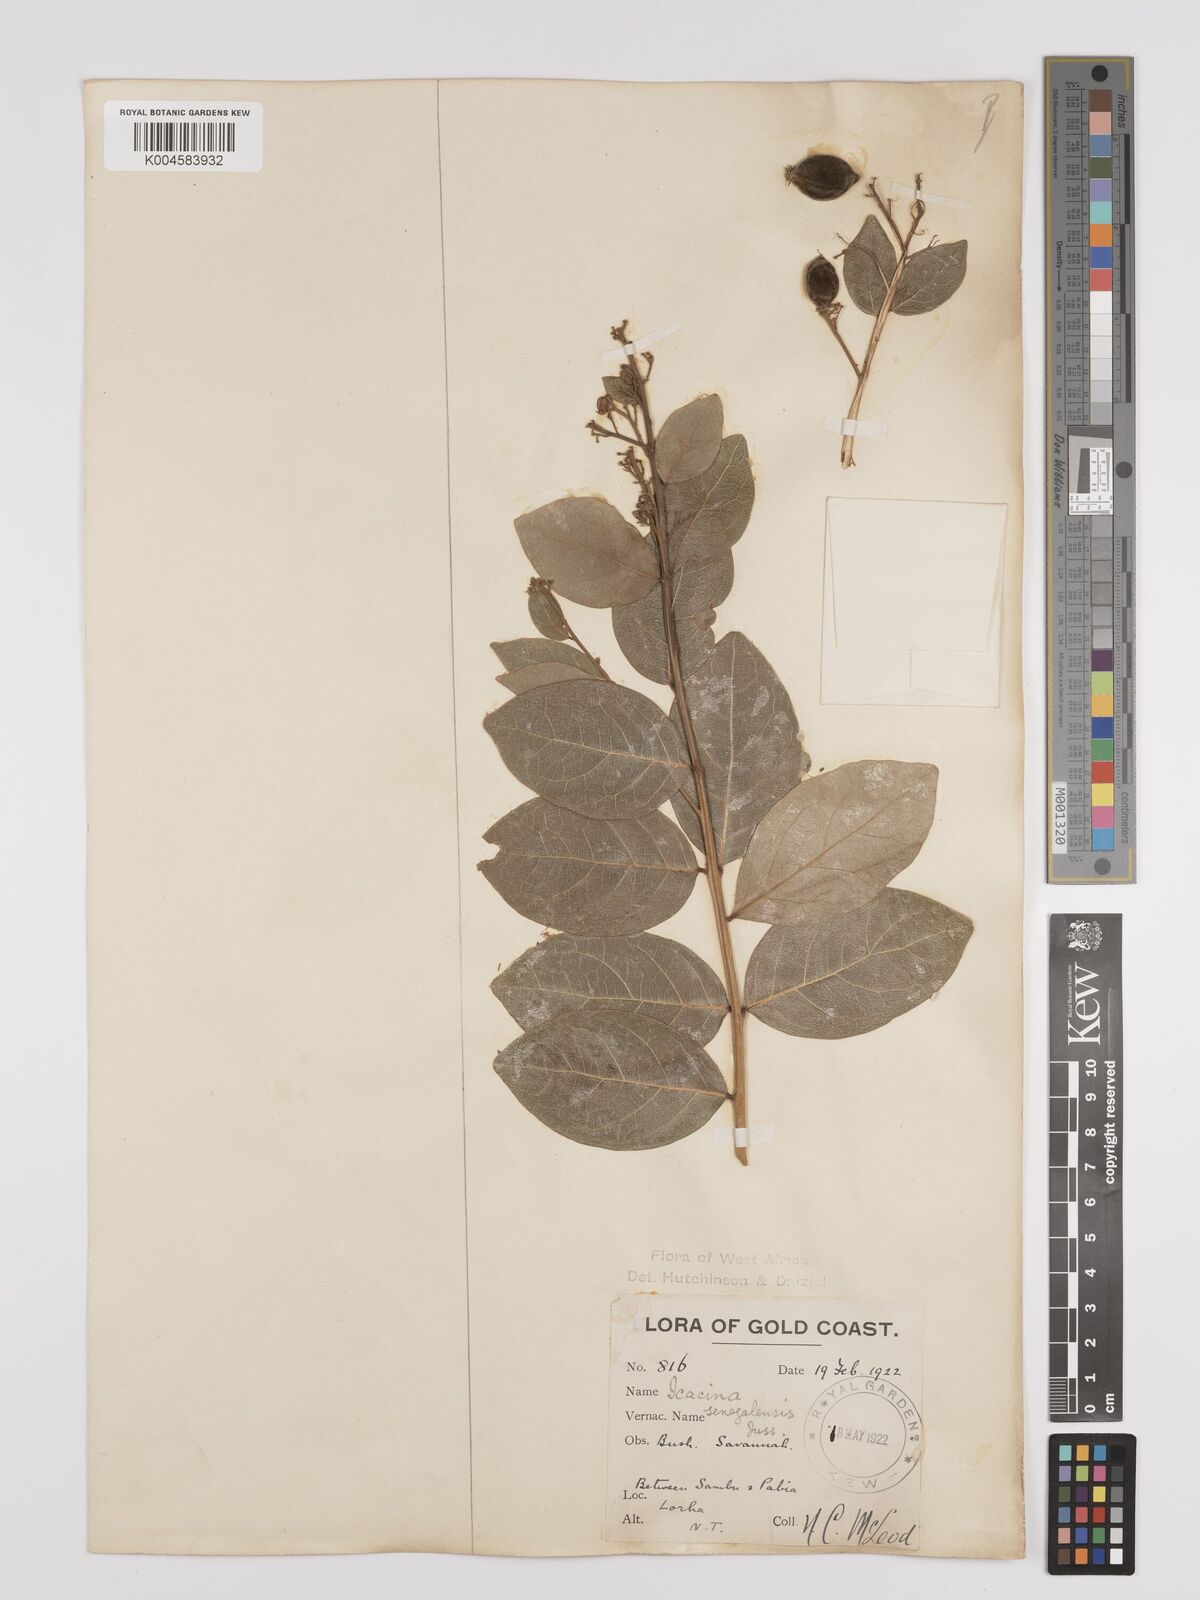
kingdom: Plantae
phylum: Tracheophyta
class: Magnoliopsida
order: Icacinales
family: Icacinaceae
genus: Icacina
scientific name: Icacina oliviformis
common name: False yam
